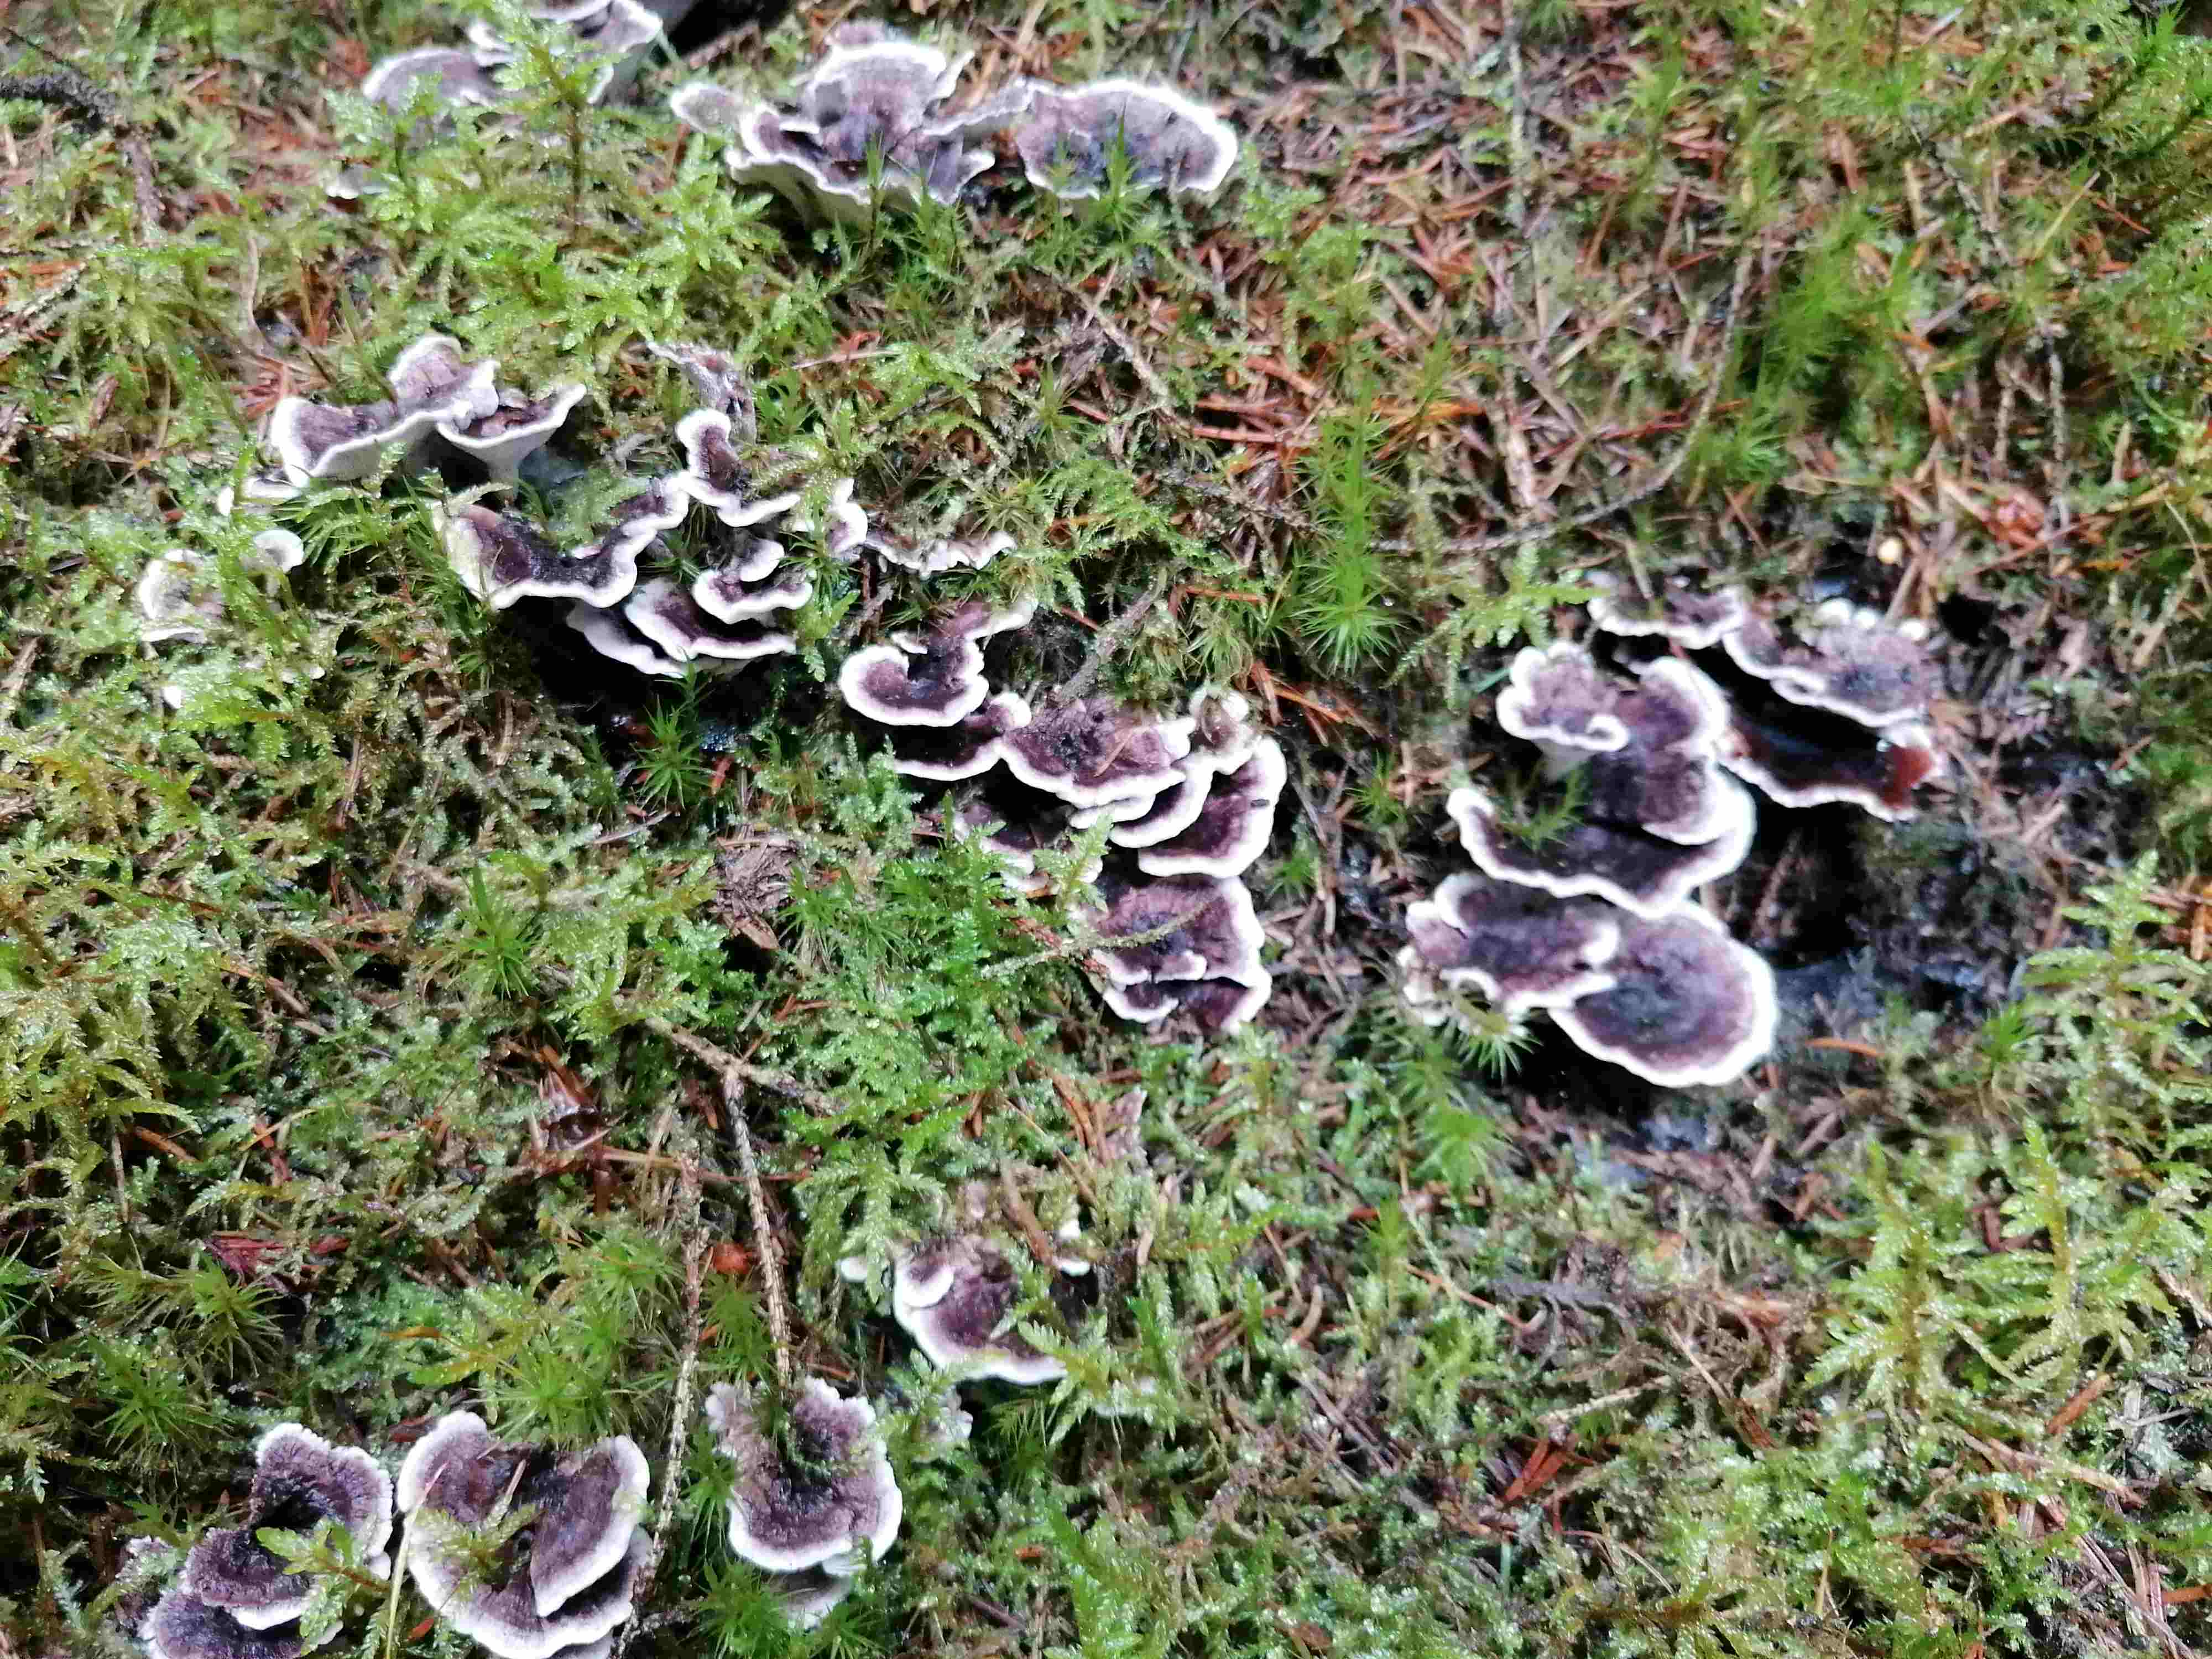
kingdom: Fungi
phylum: Basidiomycota
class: Agaricomycetes
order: Thelephorales
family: Thelephoraceae
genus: Phellodon
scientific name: Phellodon tomentosus
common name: vellugtende duftpigsvamp
